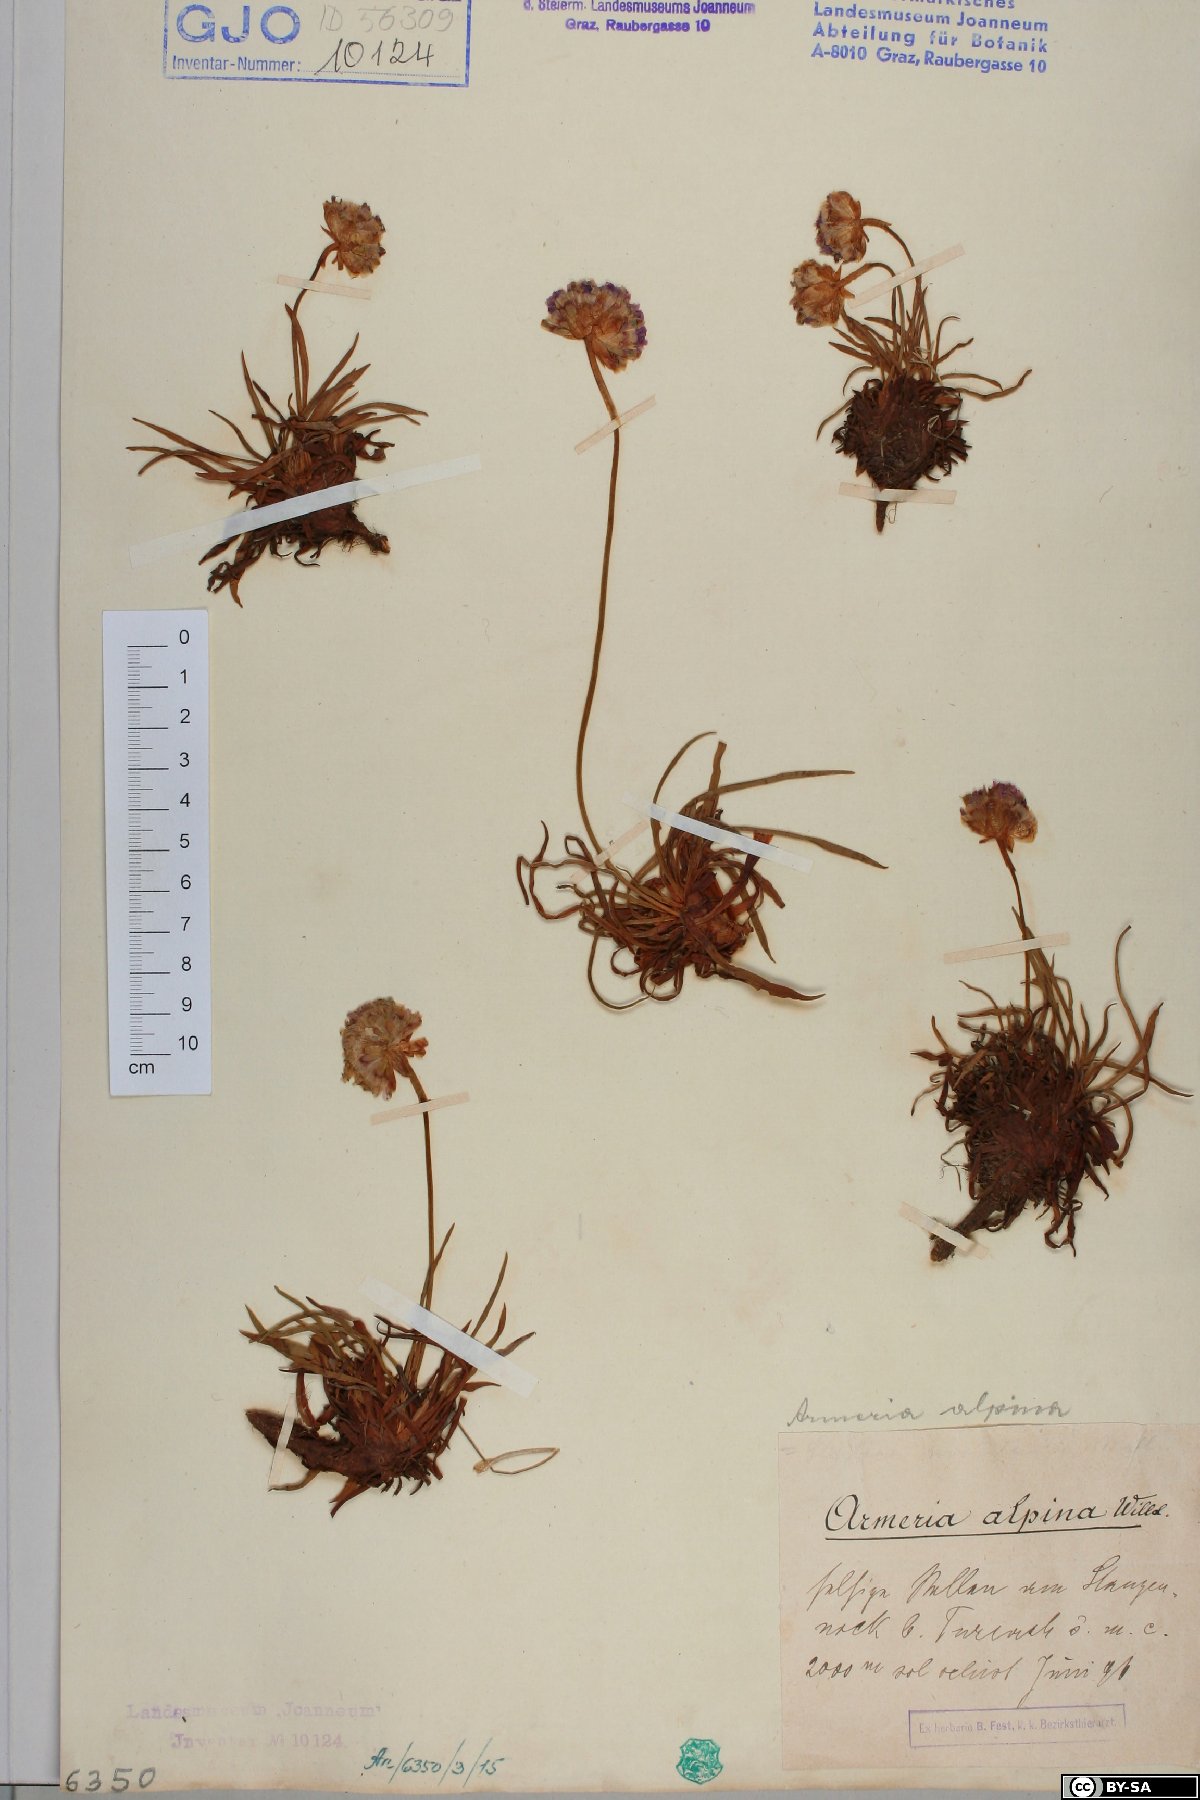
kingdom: Plantae
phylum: Tracheophyta
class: Magnoliopsida
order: Caryophyllales
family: Plumbaginaceae
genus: Armeria
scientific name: Armeria alpina
